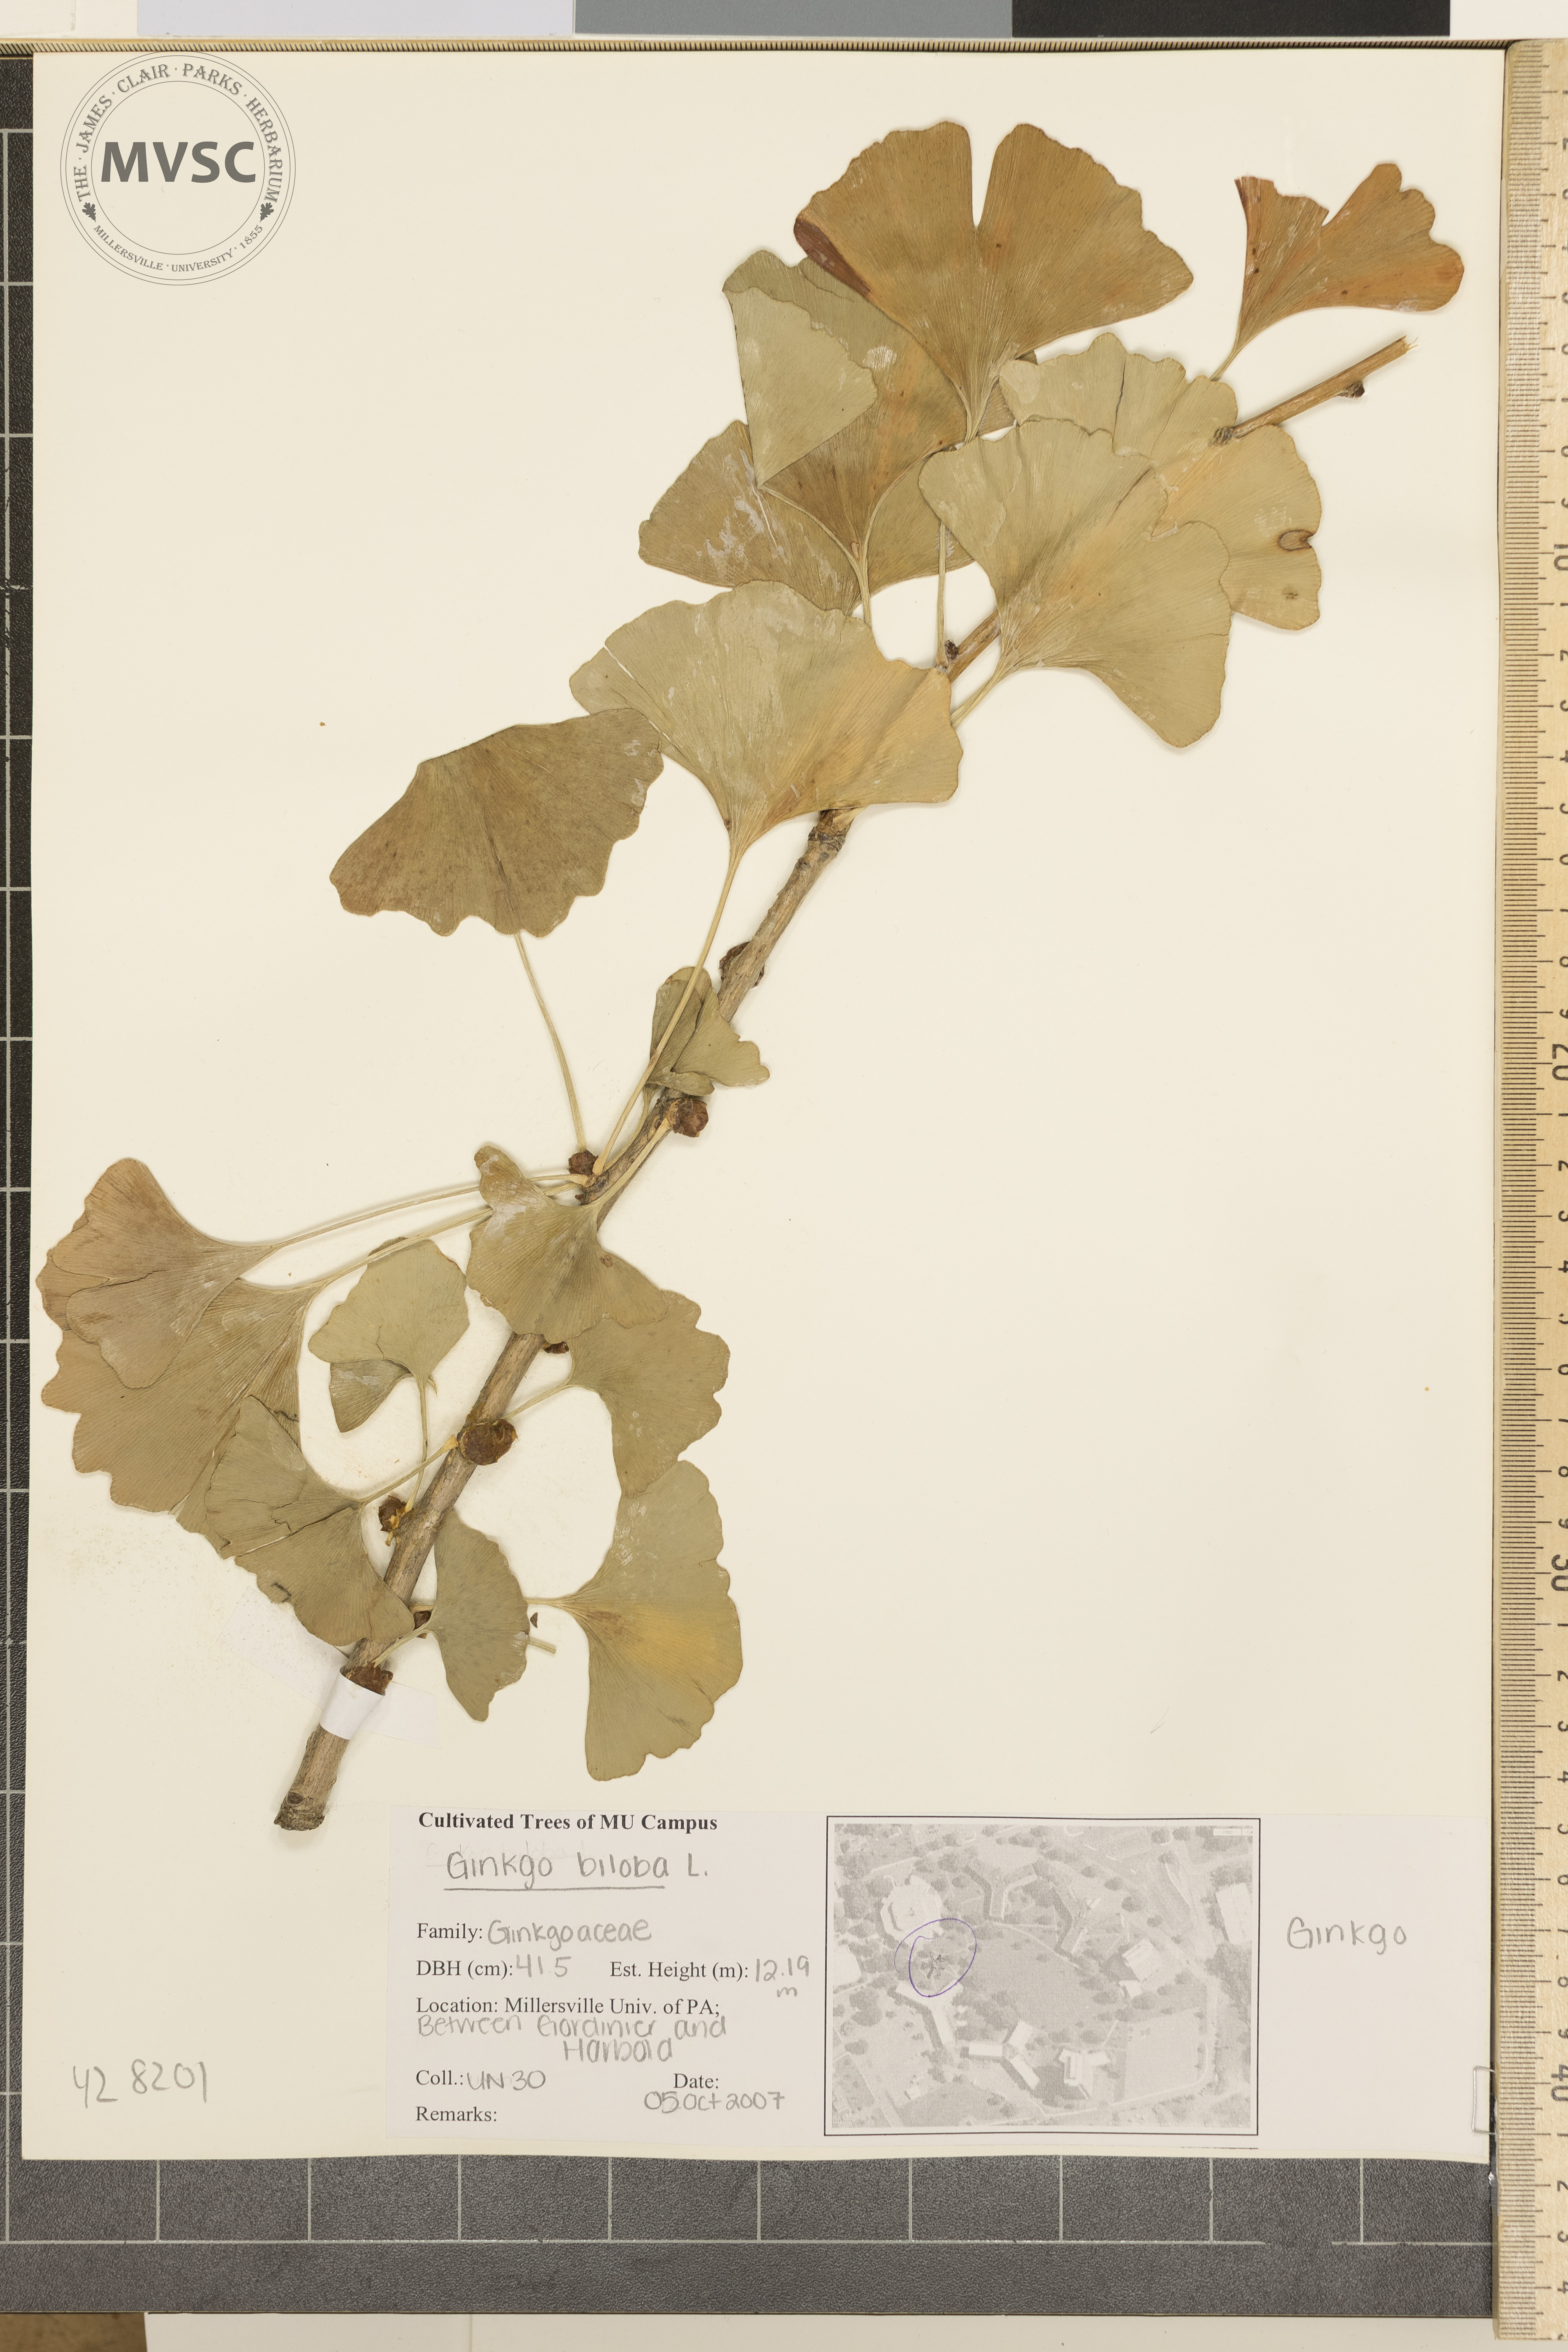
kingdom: Plantae
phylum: Tracheophyta
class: Ginkgoopsida
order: Ginkgoales
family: Ginkgoaceae
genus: Ginkgo
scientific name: Ginkgo biloba
